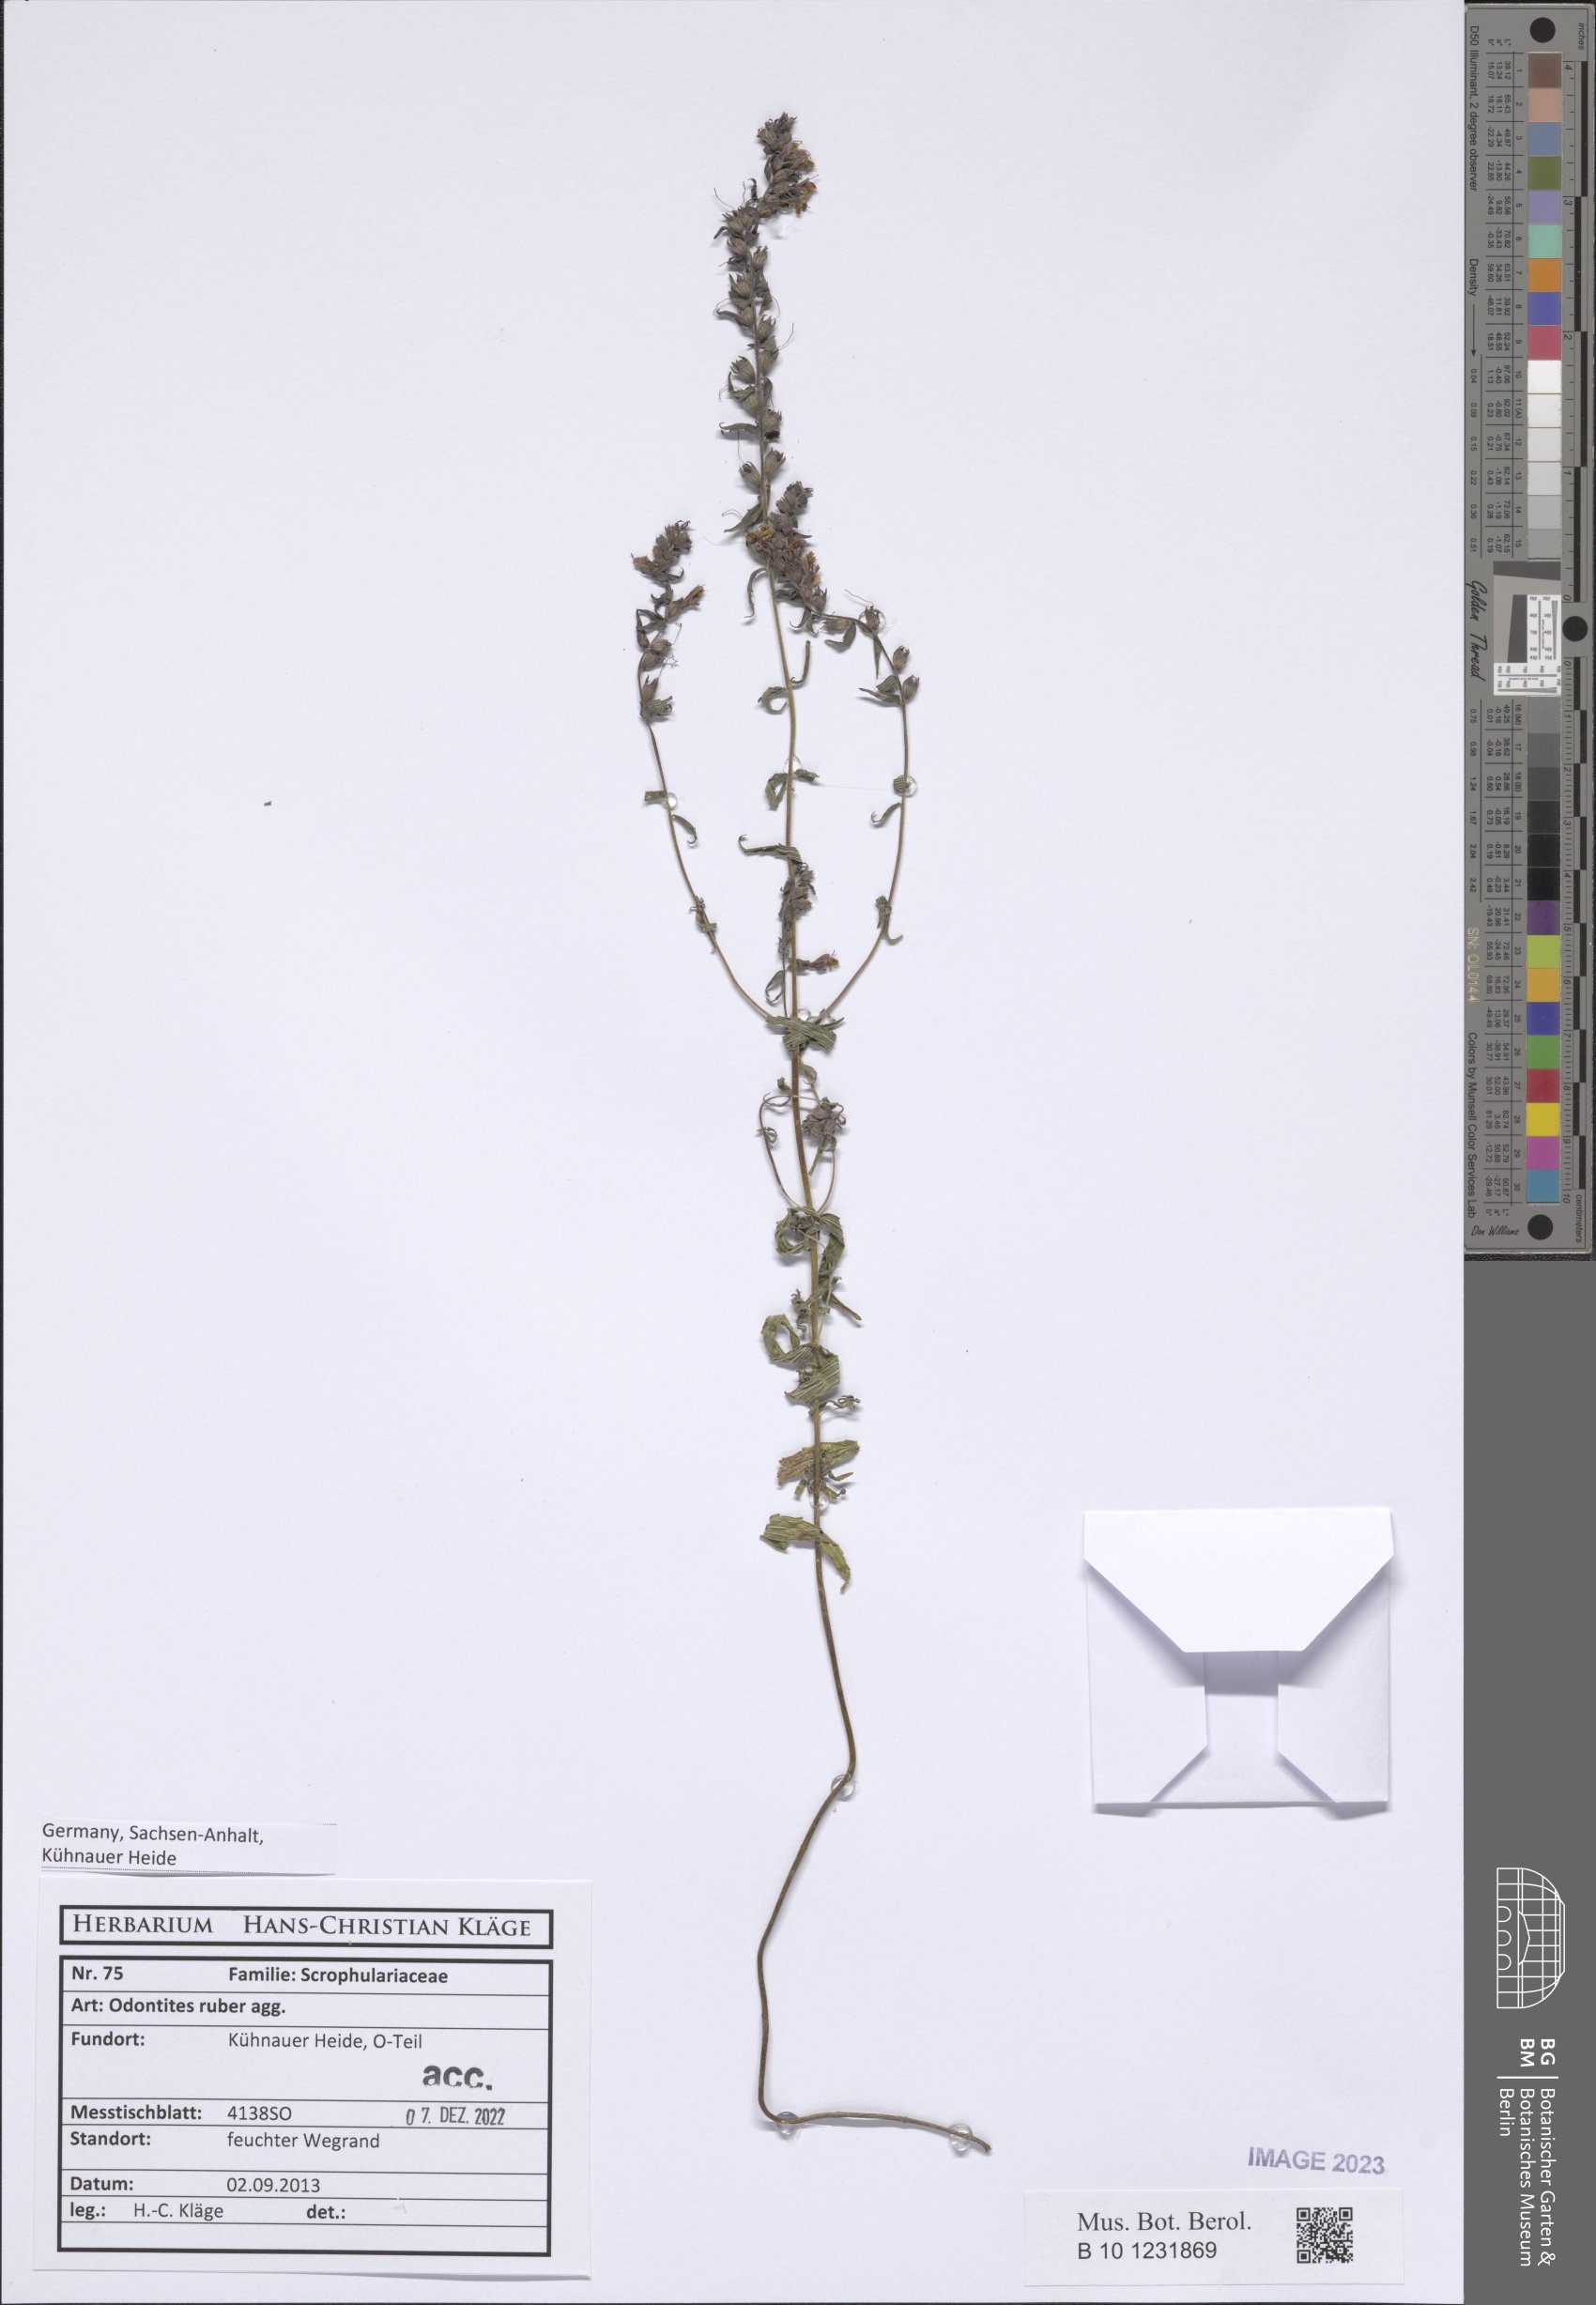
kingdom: Plantae
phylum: Tracheophyta
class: Magnoliopsida
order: Lamiales
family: Orobanchaceae
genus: Odontites
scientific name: Odontites vulgaris
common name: Broomrape
